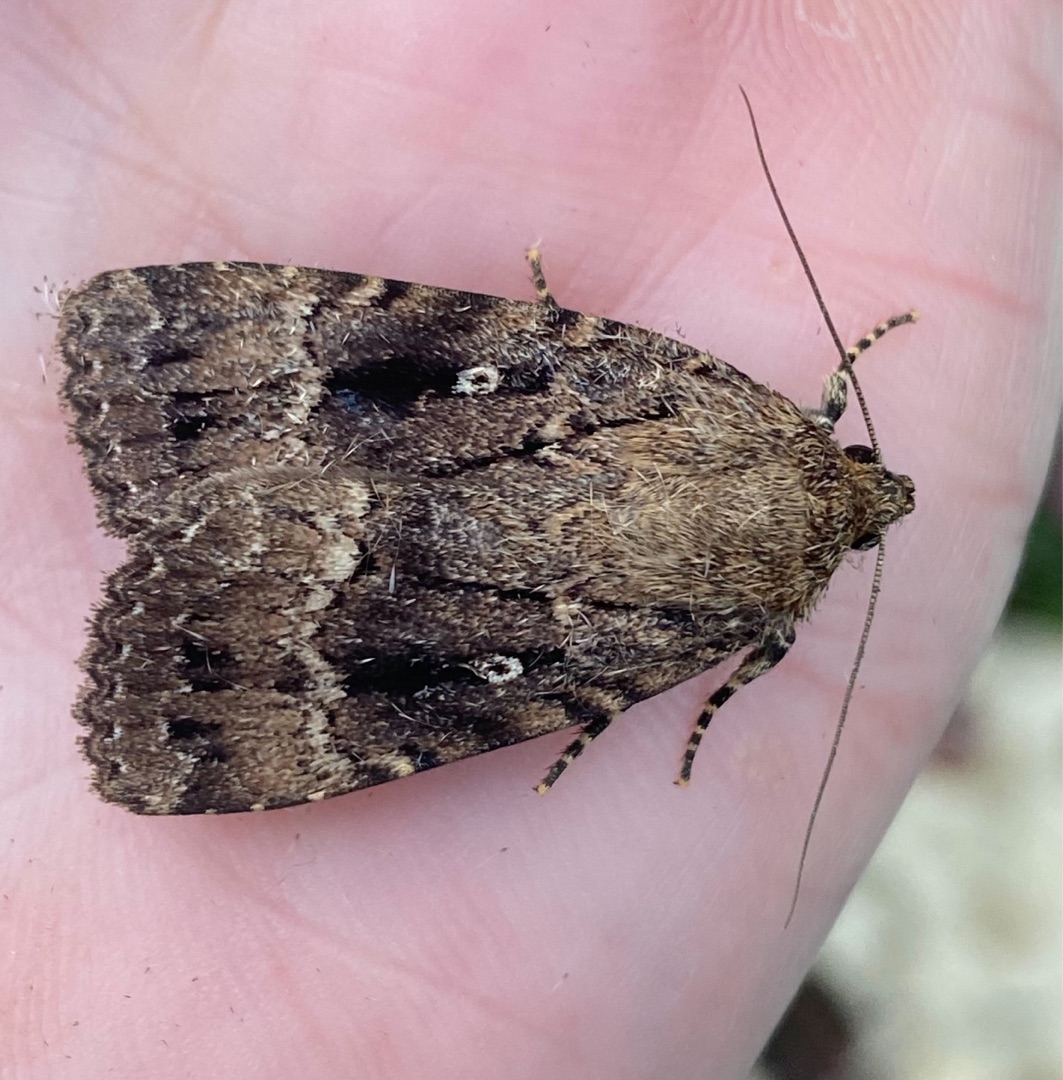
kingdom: Animalia
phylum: Arthropoda
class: Insecta
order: Lepidoptera
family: Noctuidae
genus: Amphipyra
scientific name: Amphipyra pyramidea
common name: Pyramideugle
